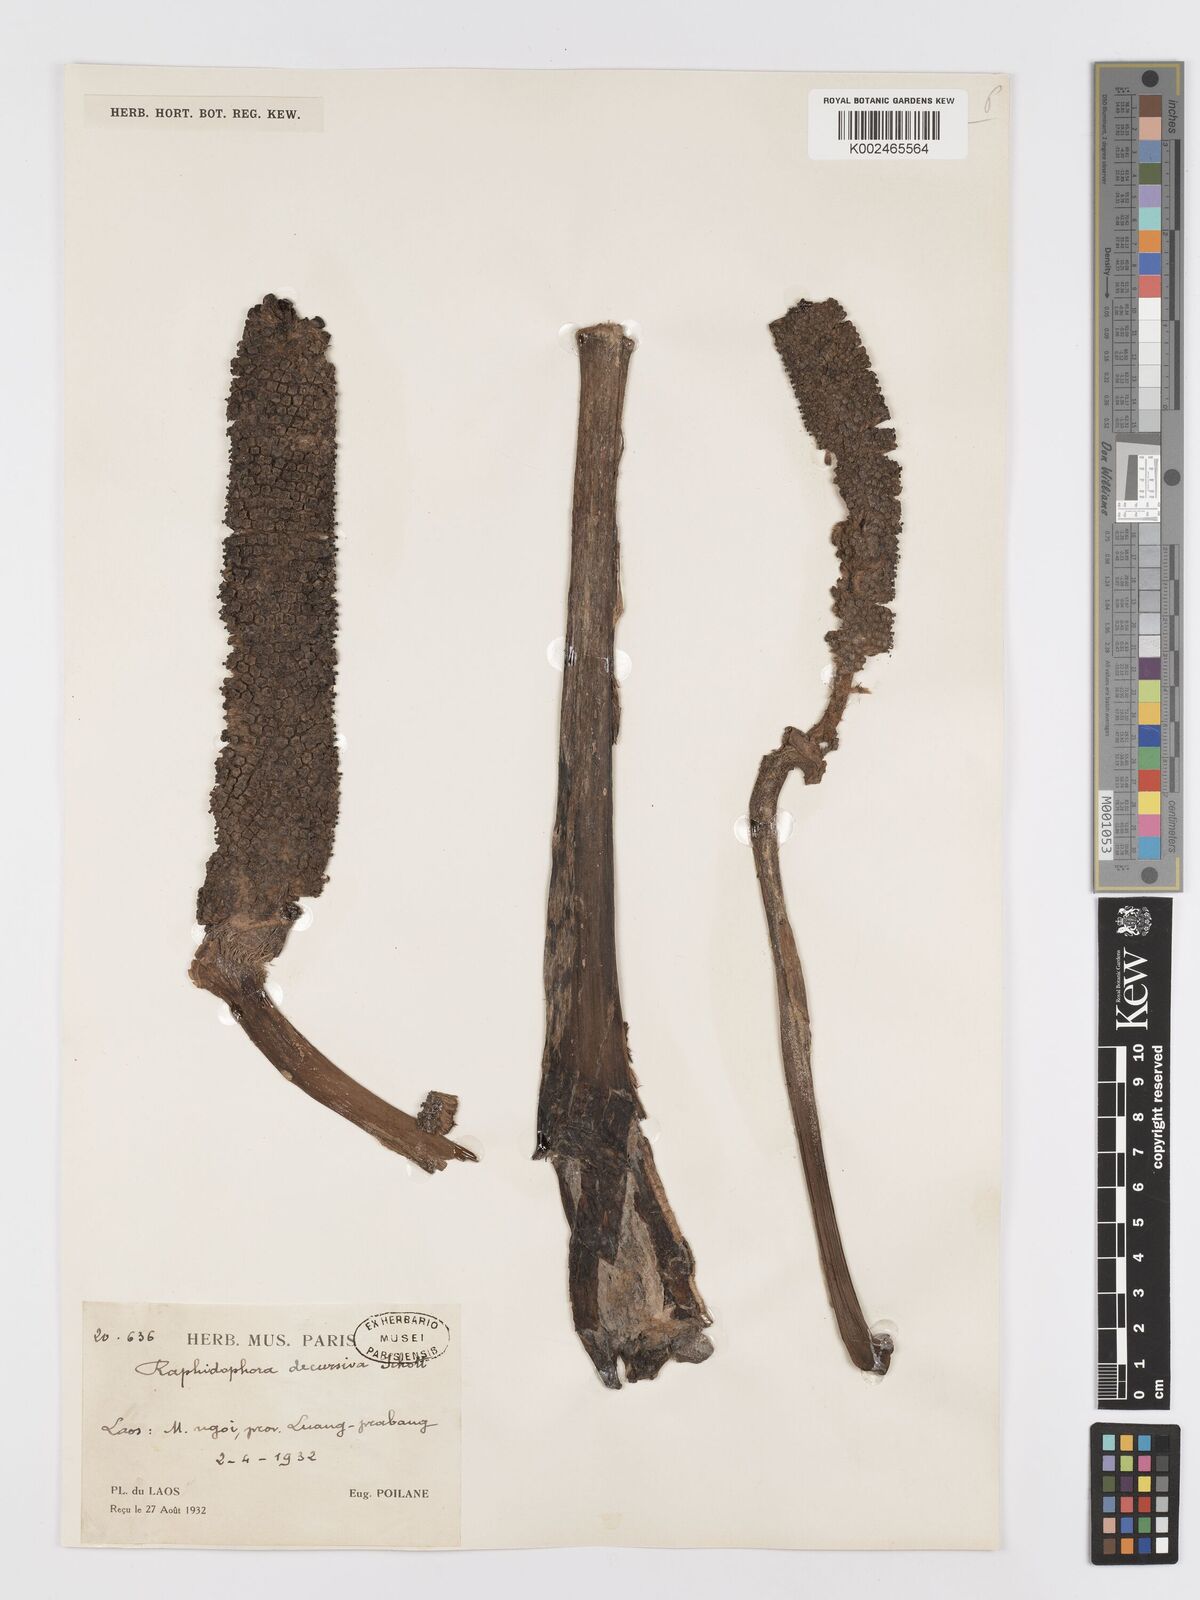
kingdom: Plantae
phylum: Tracheophyta
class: Liliopsida
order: Alismatales
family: Araceae
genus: Rhaphidophora
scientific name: Rhaphidophora decursiva
